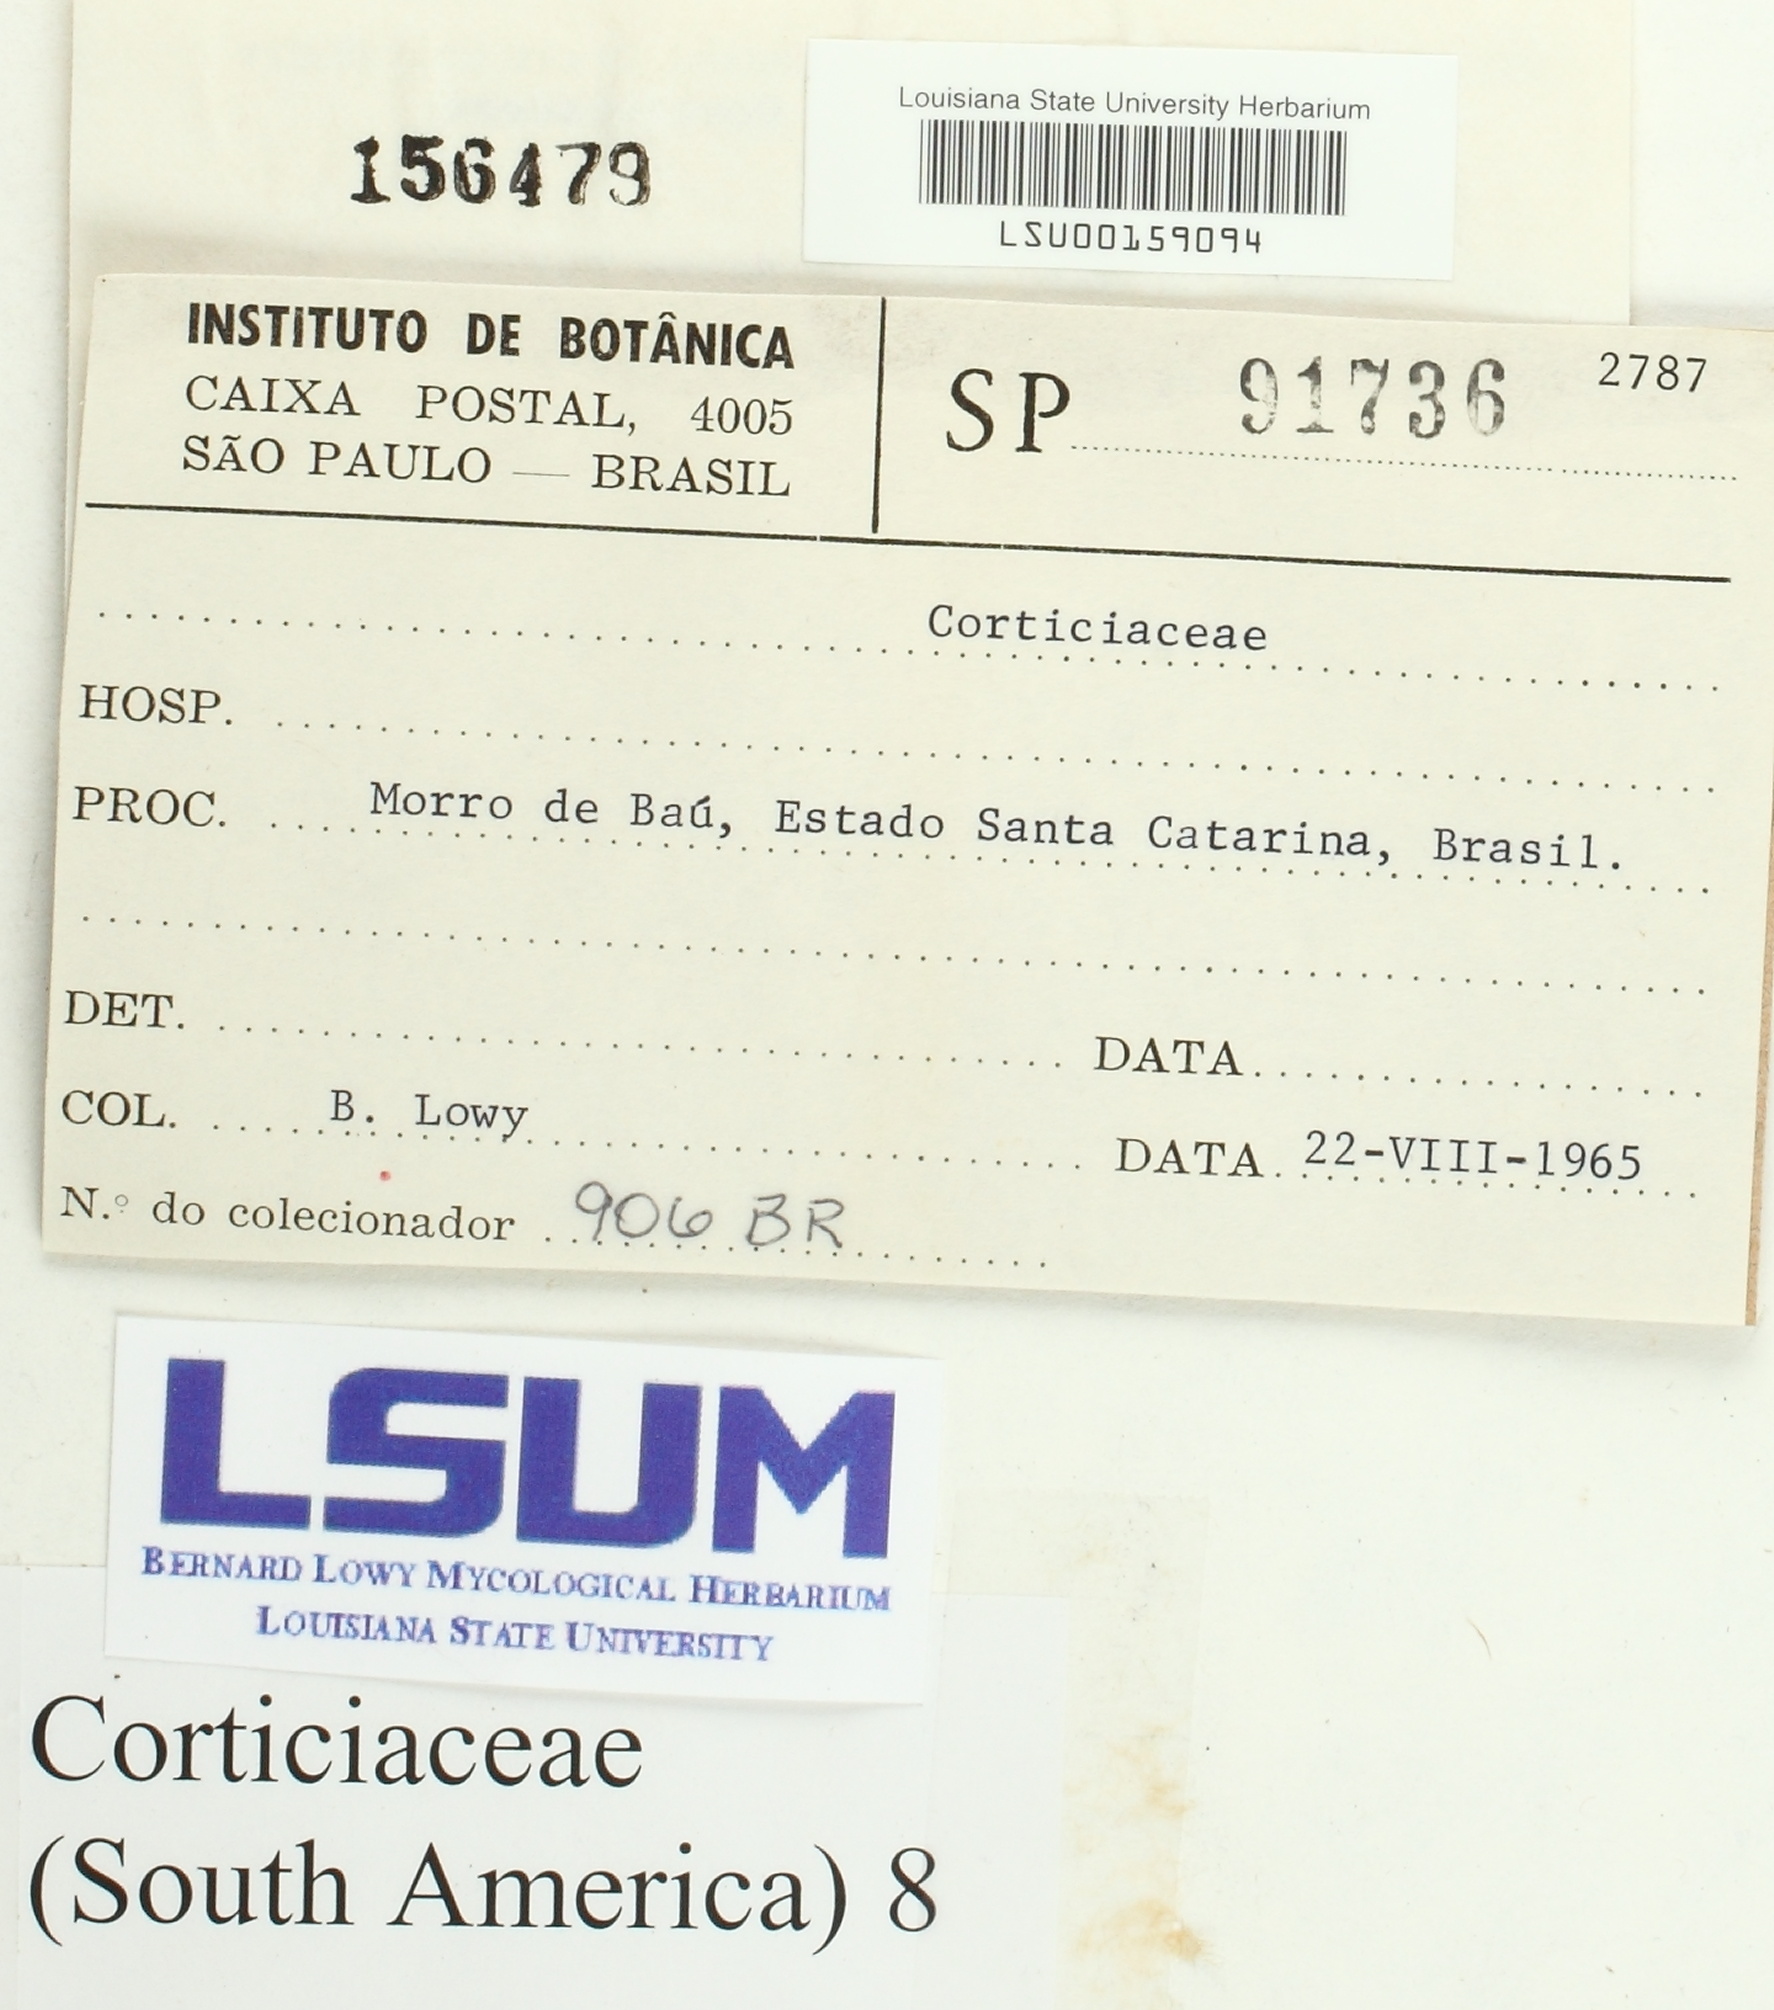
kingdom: Fungi
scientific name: Fungi
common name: Fungi
